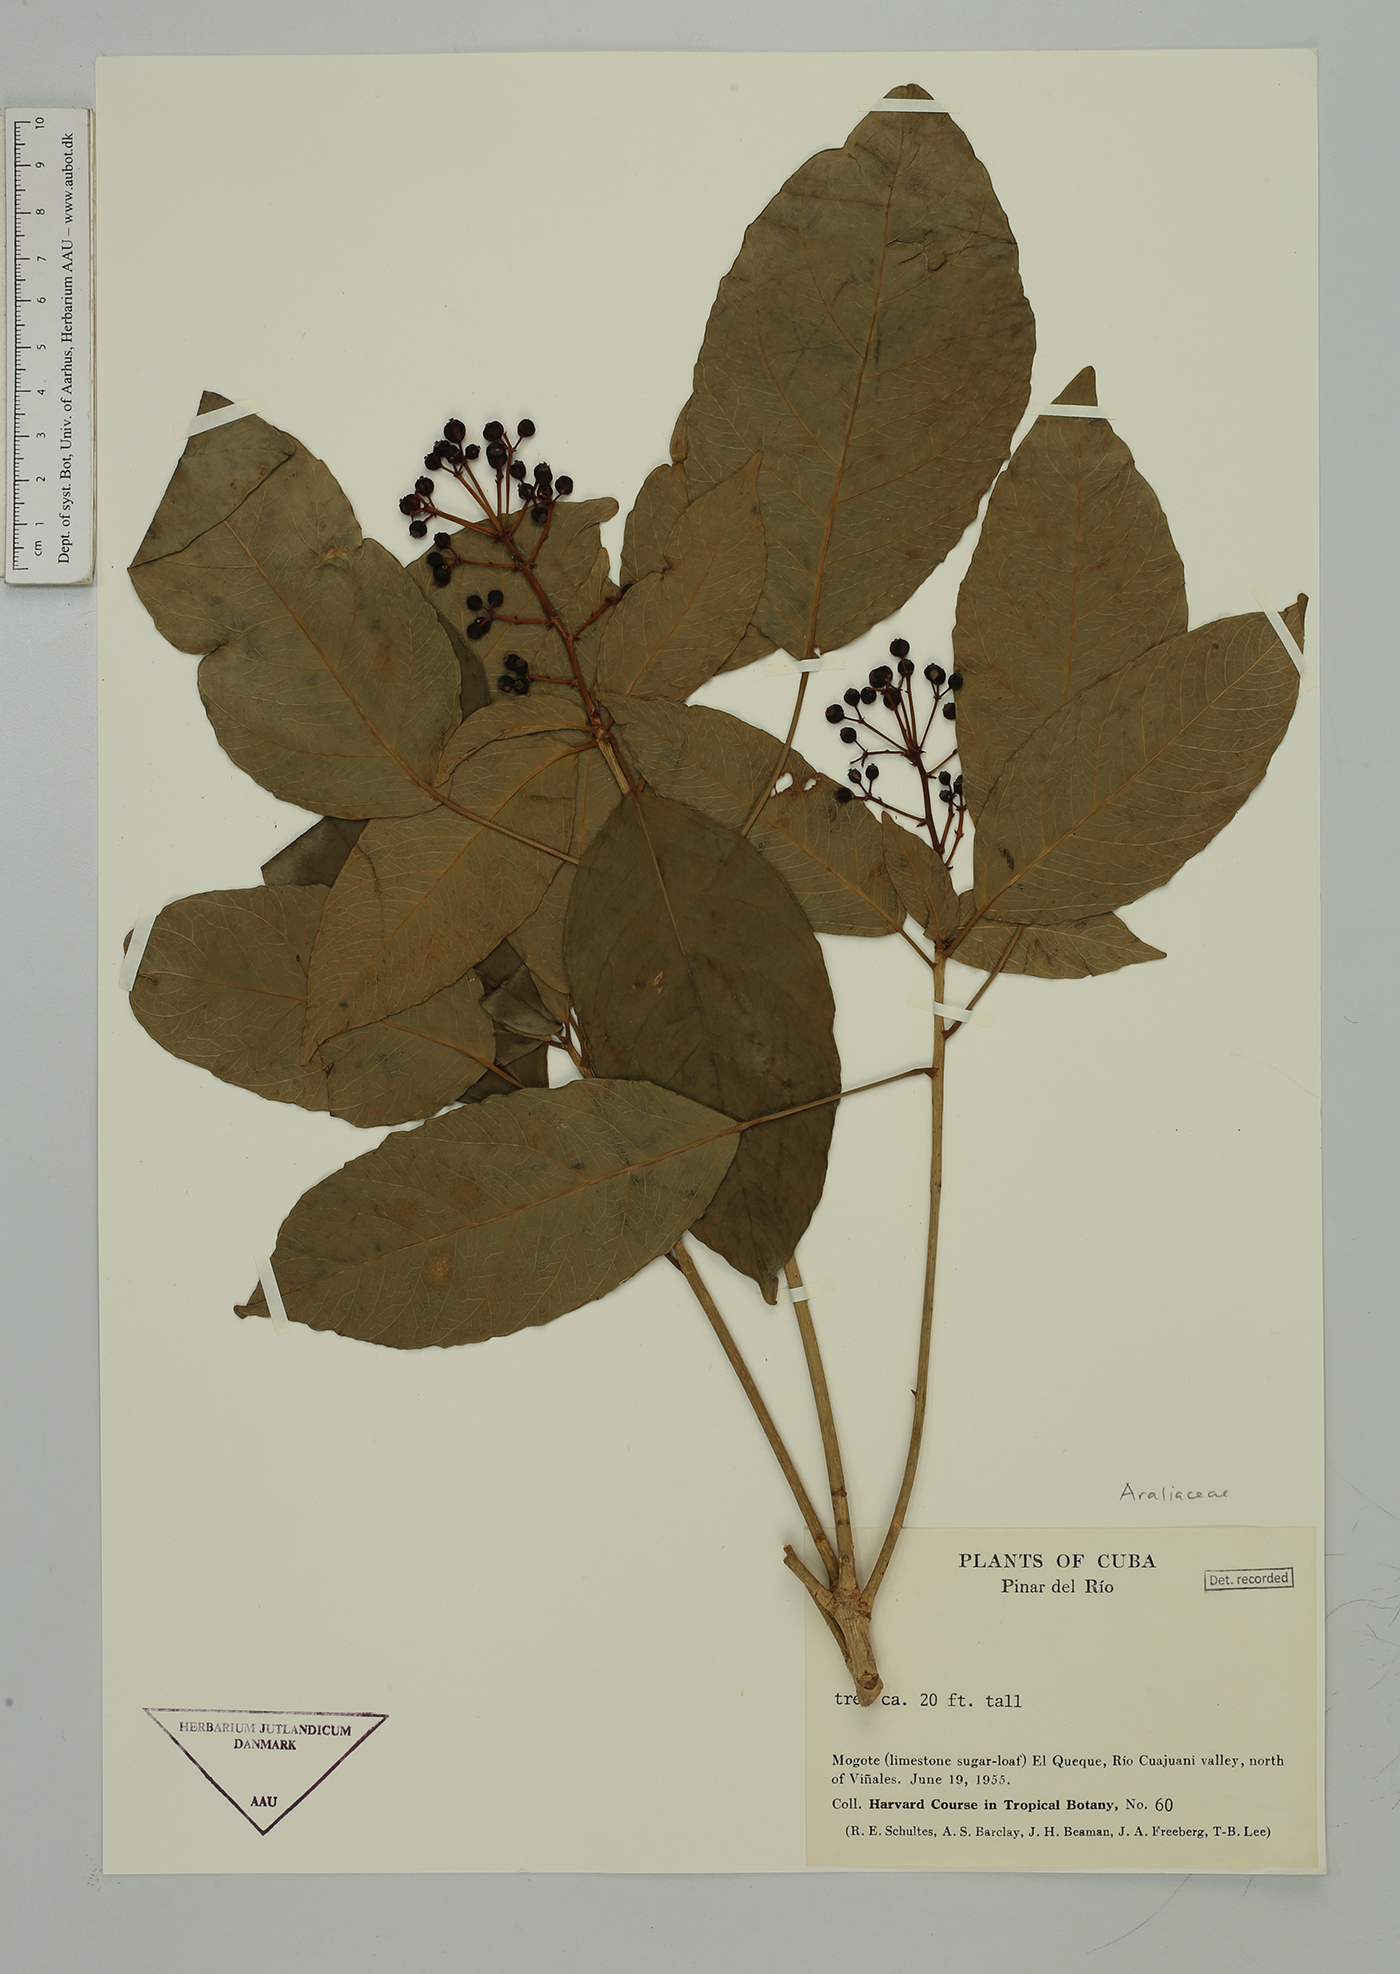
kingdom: Plantae
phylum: Tracheophyta
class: Magnoliopsida
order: Apiales
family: Araliaceae
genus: Oreopanax
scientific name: Oreopanax
